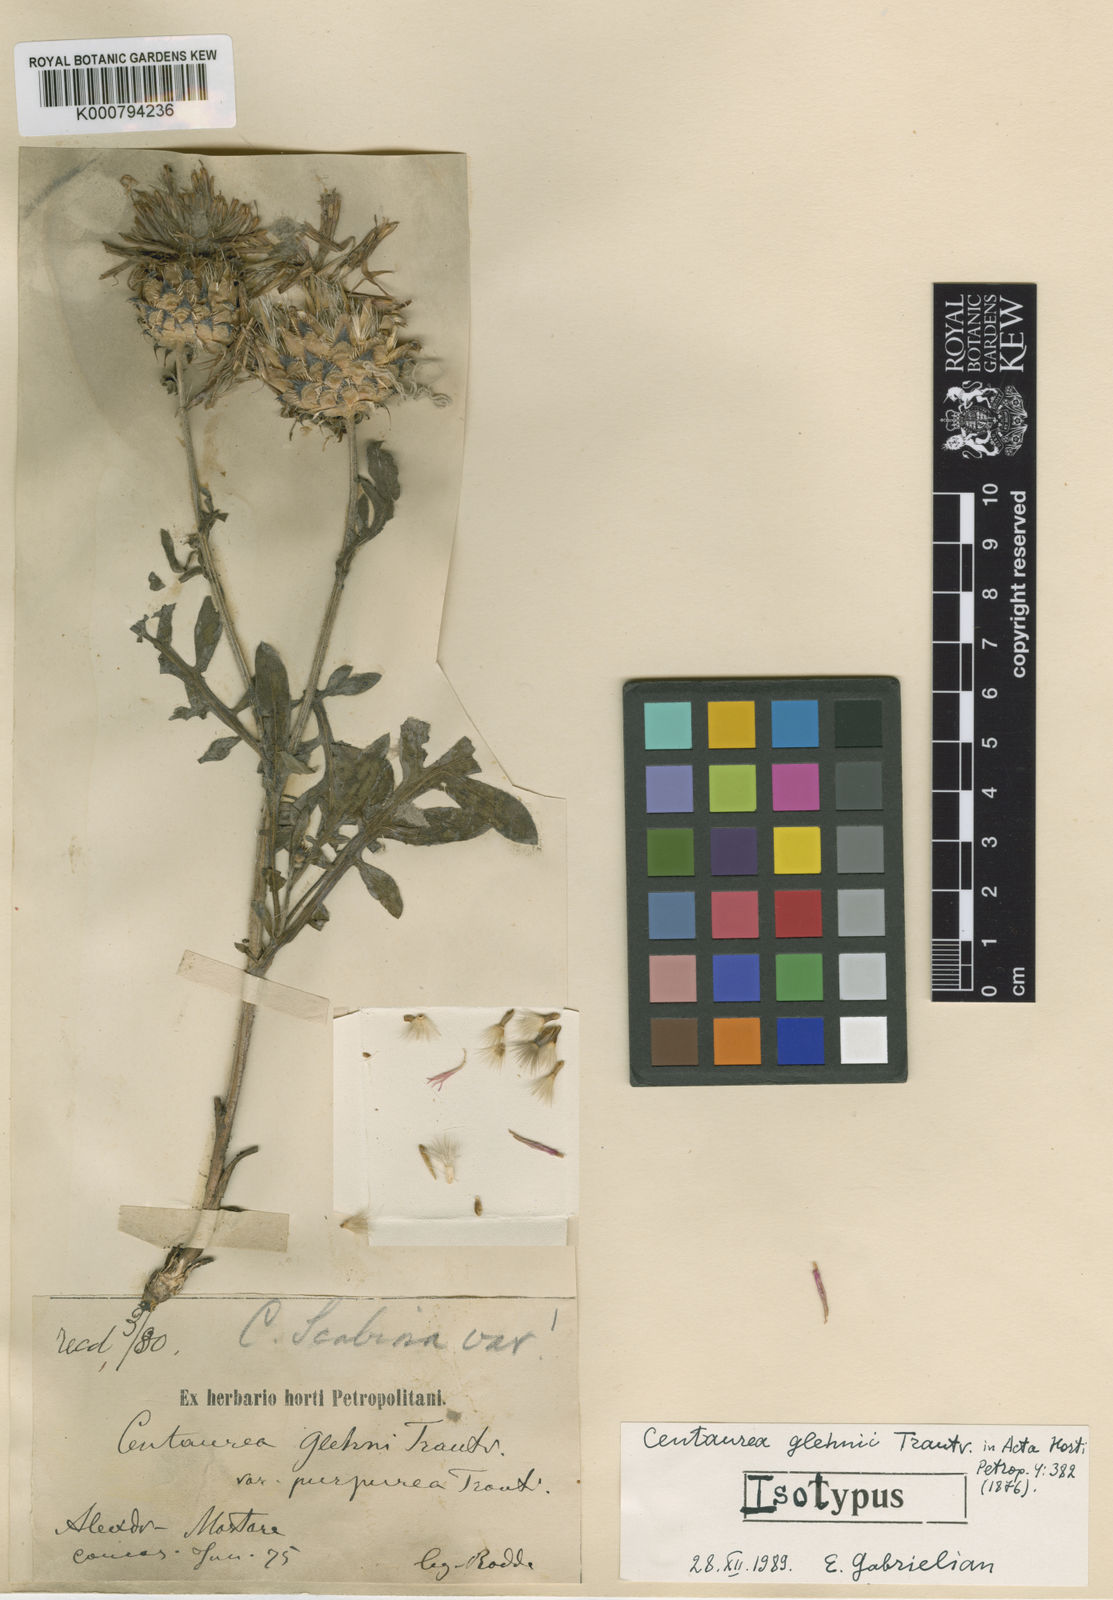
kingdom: Plantae
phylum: Tracheophyta
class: Magnoliopsida
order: Asterales
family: Asteraceae
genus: Centaurea
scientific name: Centaurea pseudoscabiosa
